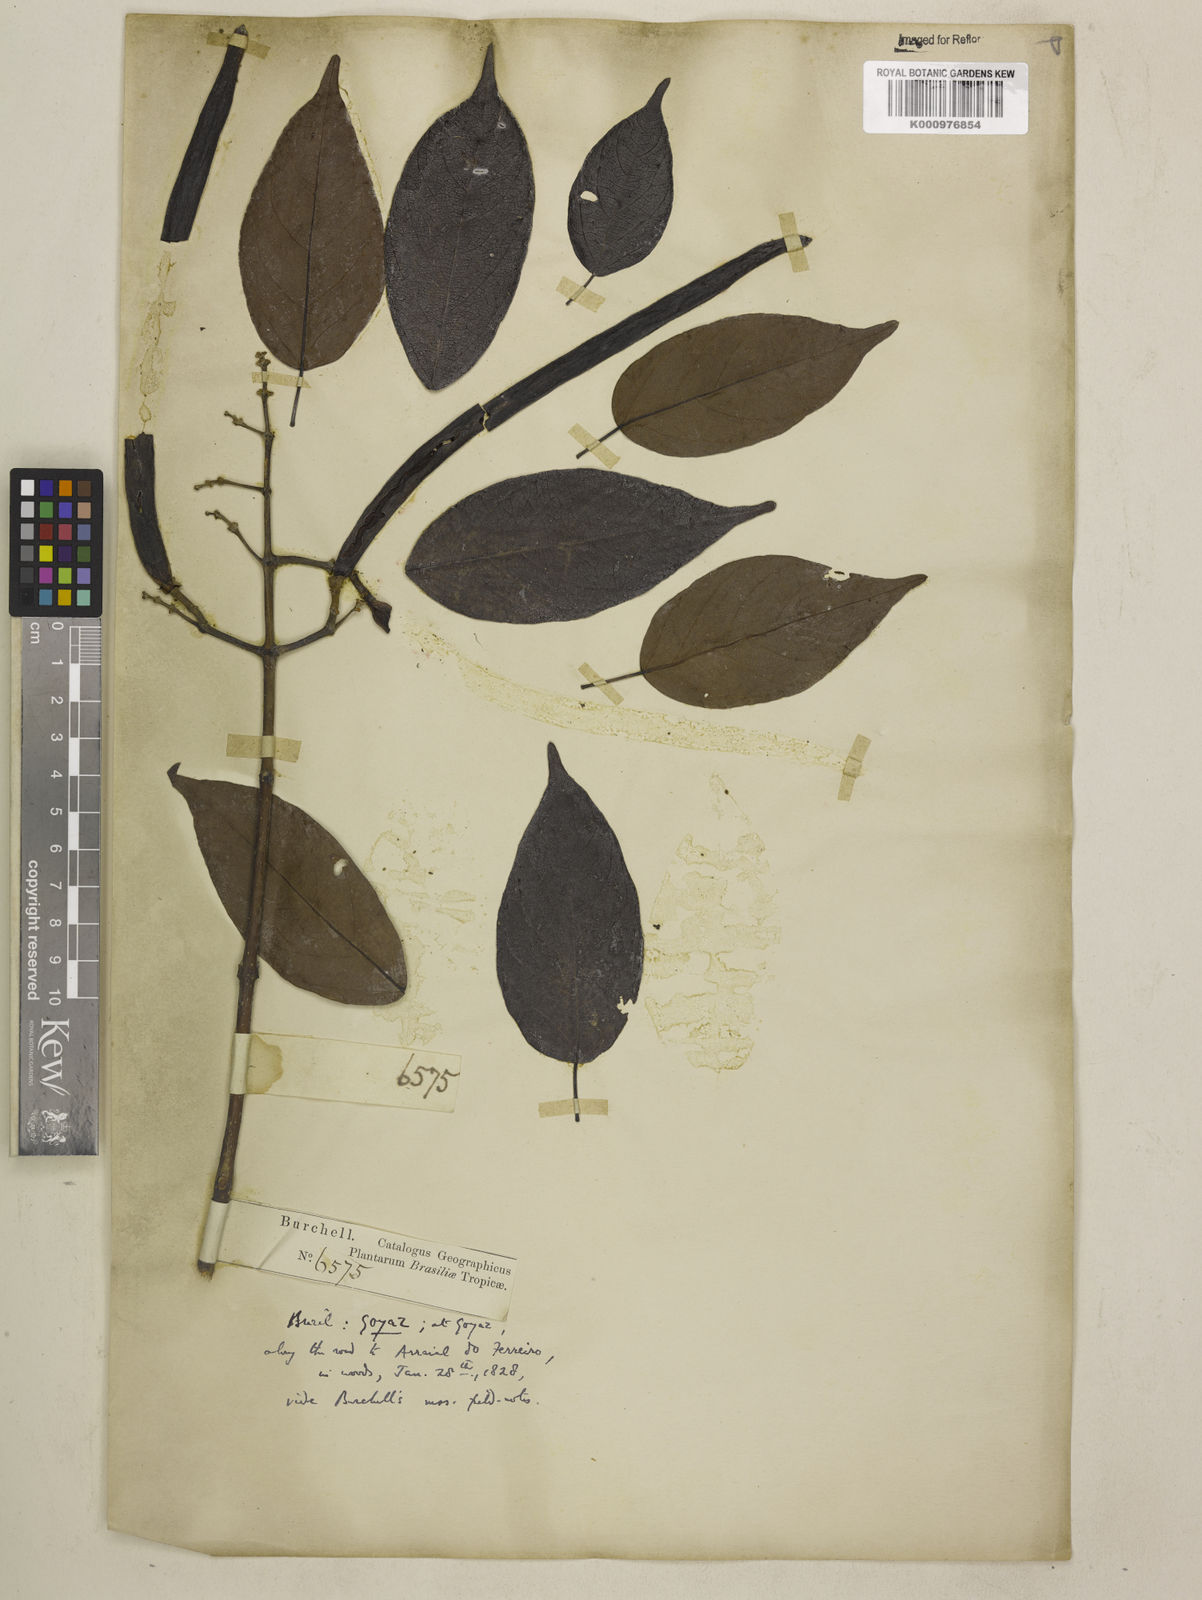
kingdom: Plantae
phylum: Tracheophyta
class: Magnoliopsida
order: Lamiales
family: Bignoniaceae
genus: Fridericia
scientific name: Fridericia chica
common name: Cricketvine
